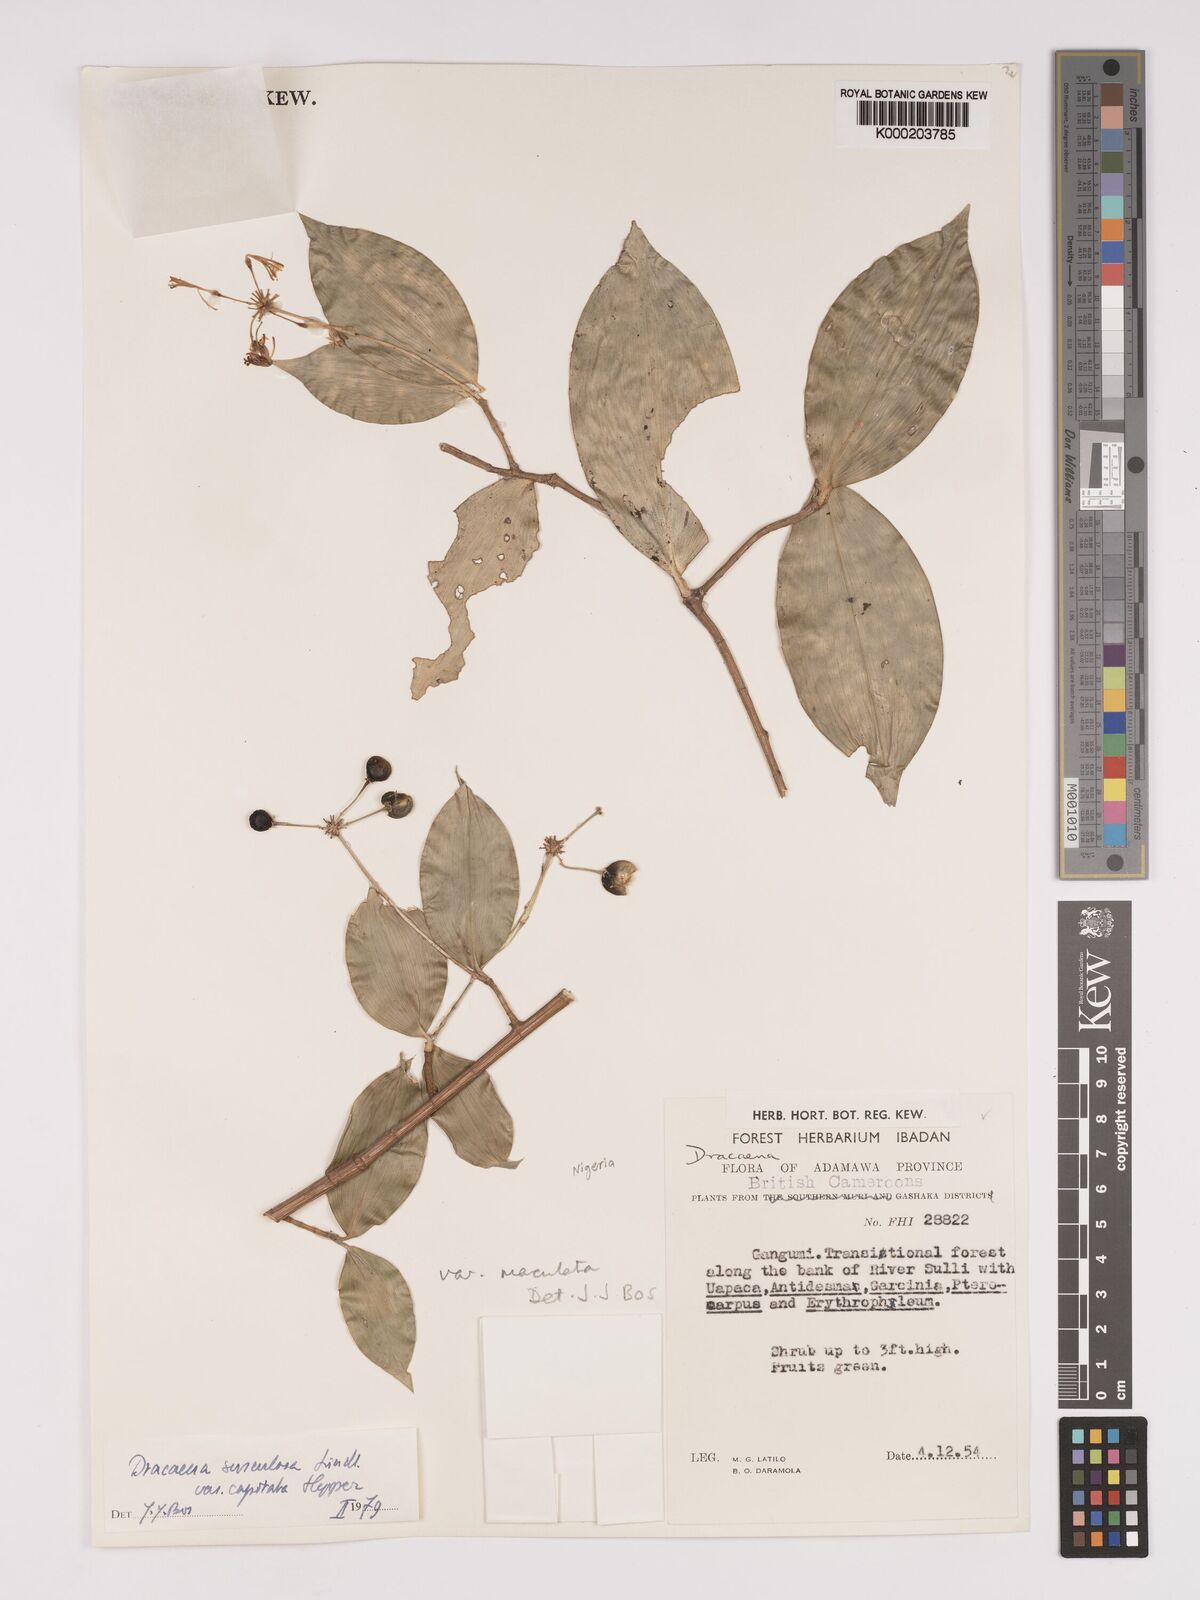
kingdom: Plantae
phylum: Tracheophyta
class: Liliopsida
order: Asparagales
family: Asparagaceae
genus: Dracaena
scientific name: Dracaena surculosa
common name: Spotted dracaena
